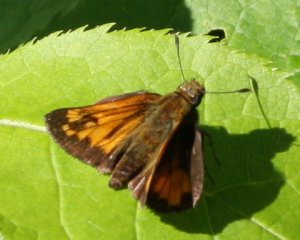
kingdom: Animalia
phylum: Arthropoda
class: Insecta
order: Lepidoptera
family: Hesperiidae
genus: Lon
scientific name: Lon hobomok
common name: Hobomok Skipper
